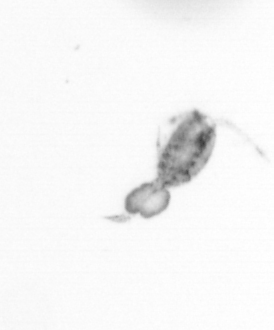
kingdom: Animalia
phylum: Arthropoda
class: Copepoda
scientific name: Copepoda
